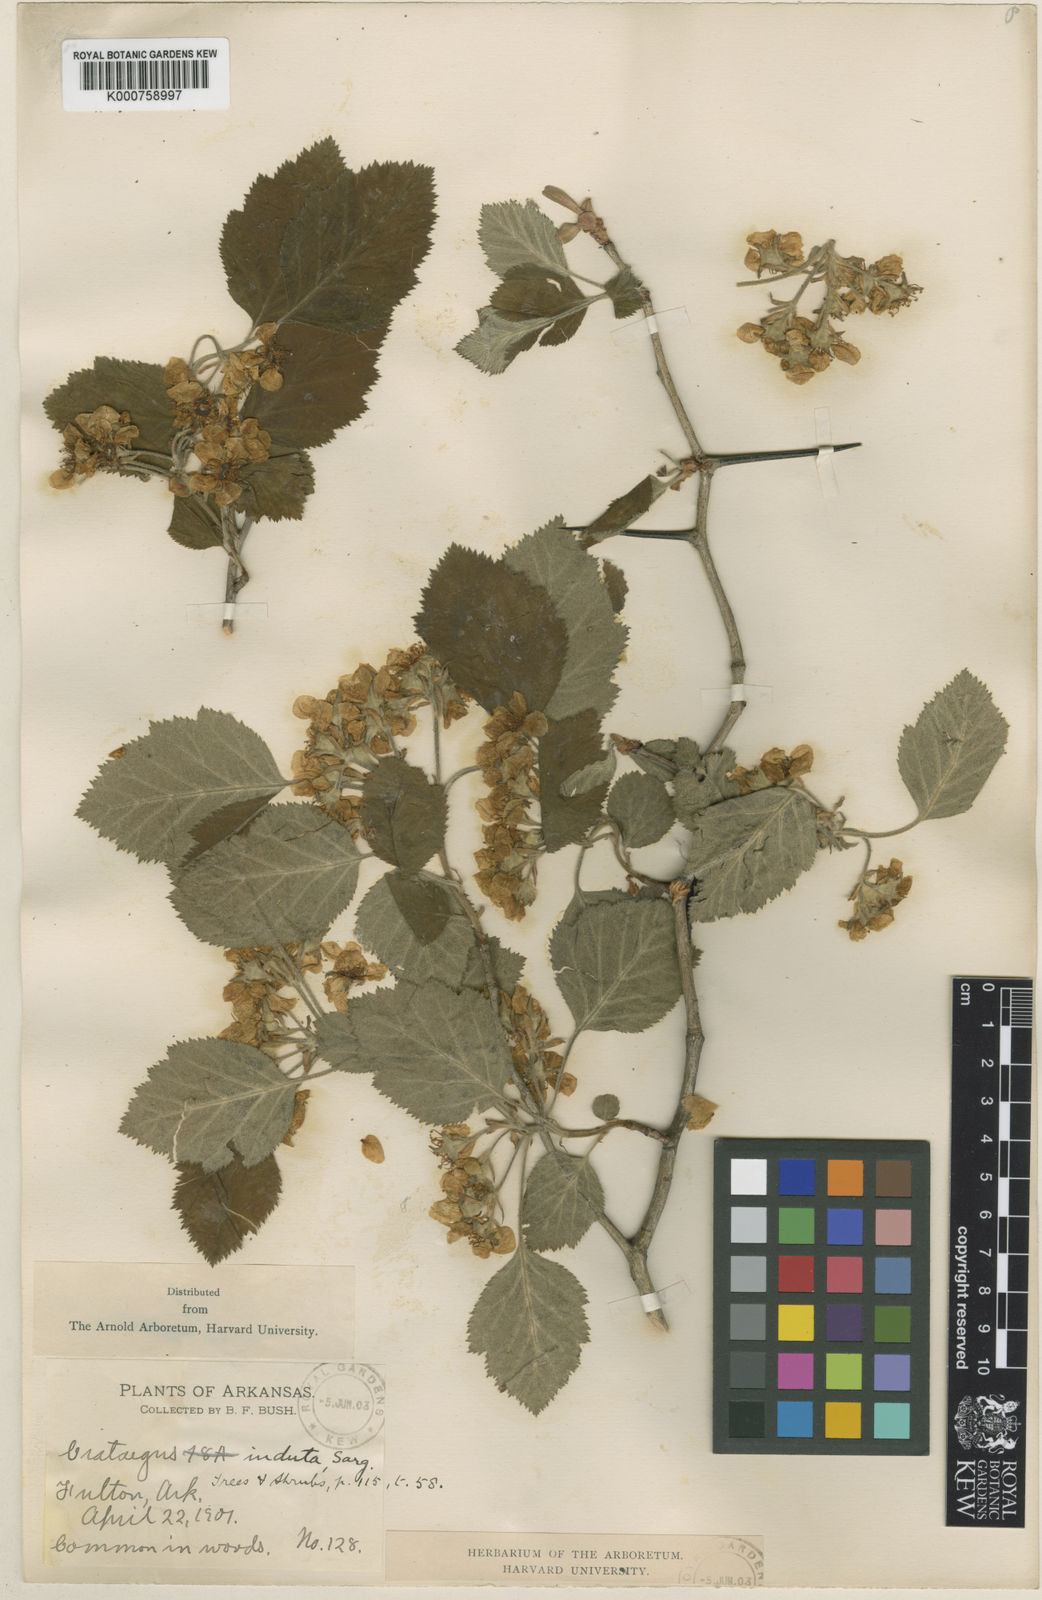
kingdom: Plantae
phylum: Tracheophyta
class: Magnoliopsida
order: Rosales
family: Rosaceae
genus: Crataegus
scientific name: Crataegus mollis
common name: Downy hawthorn
